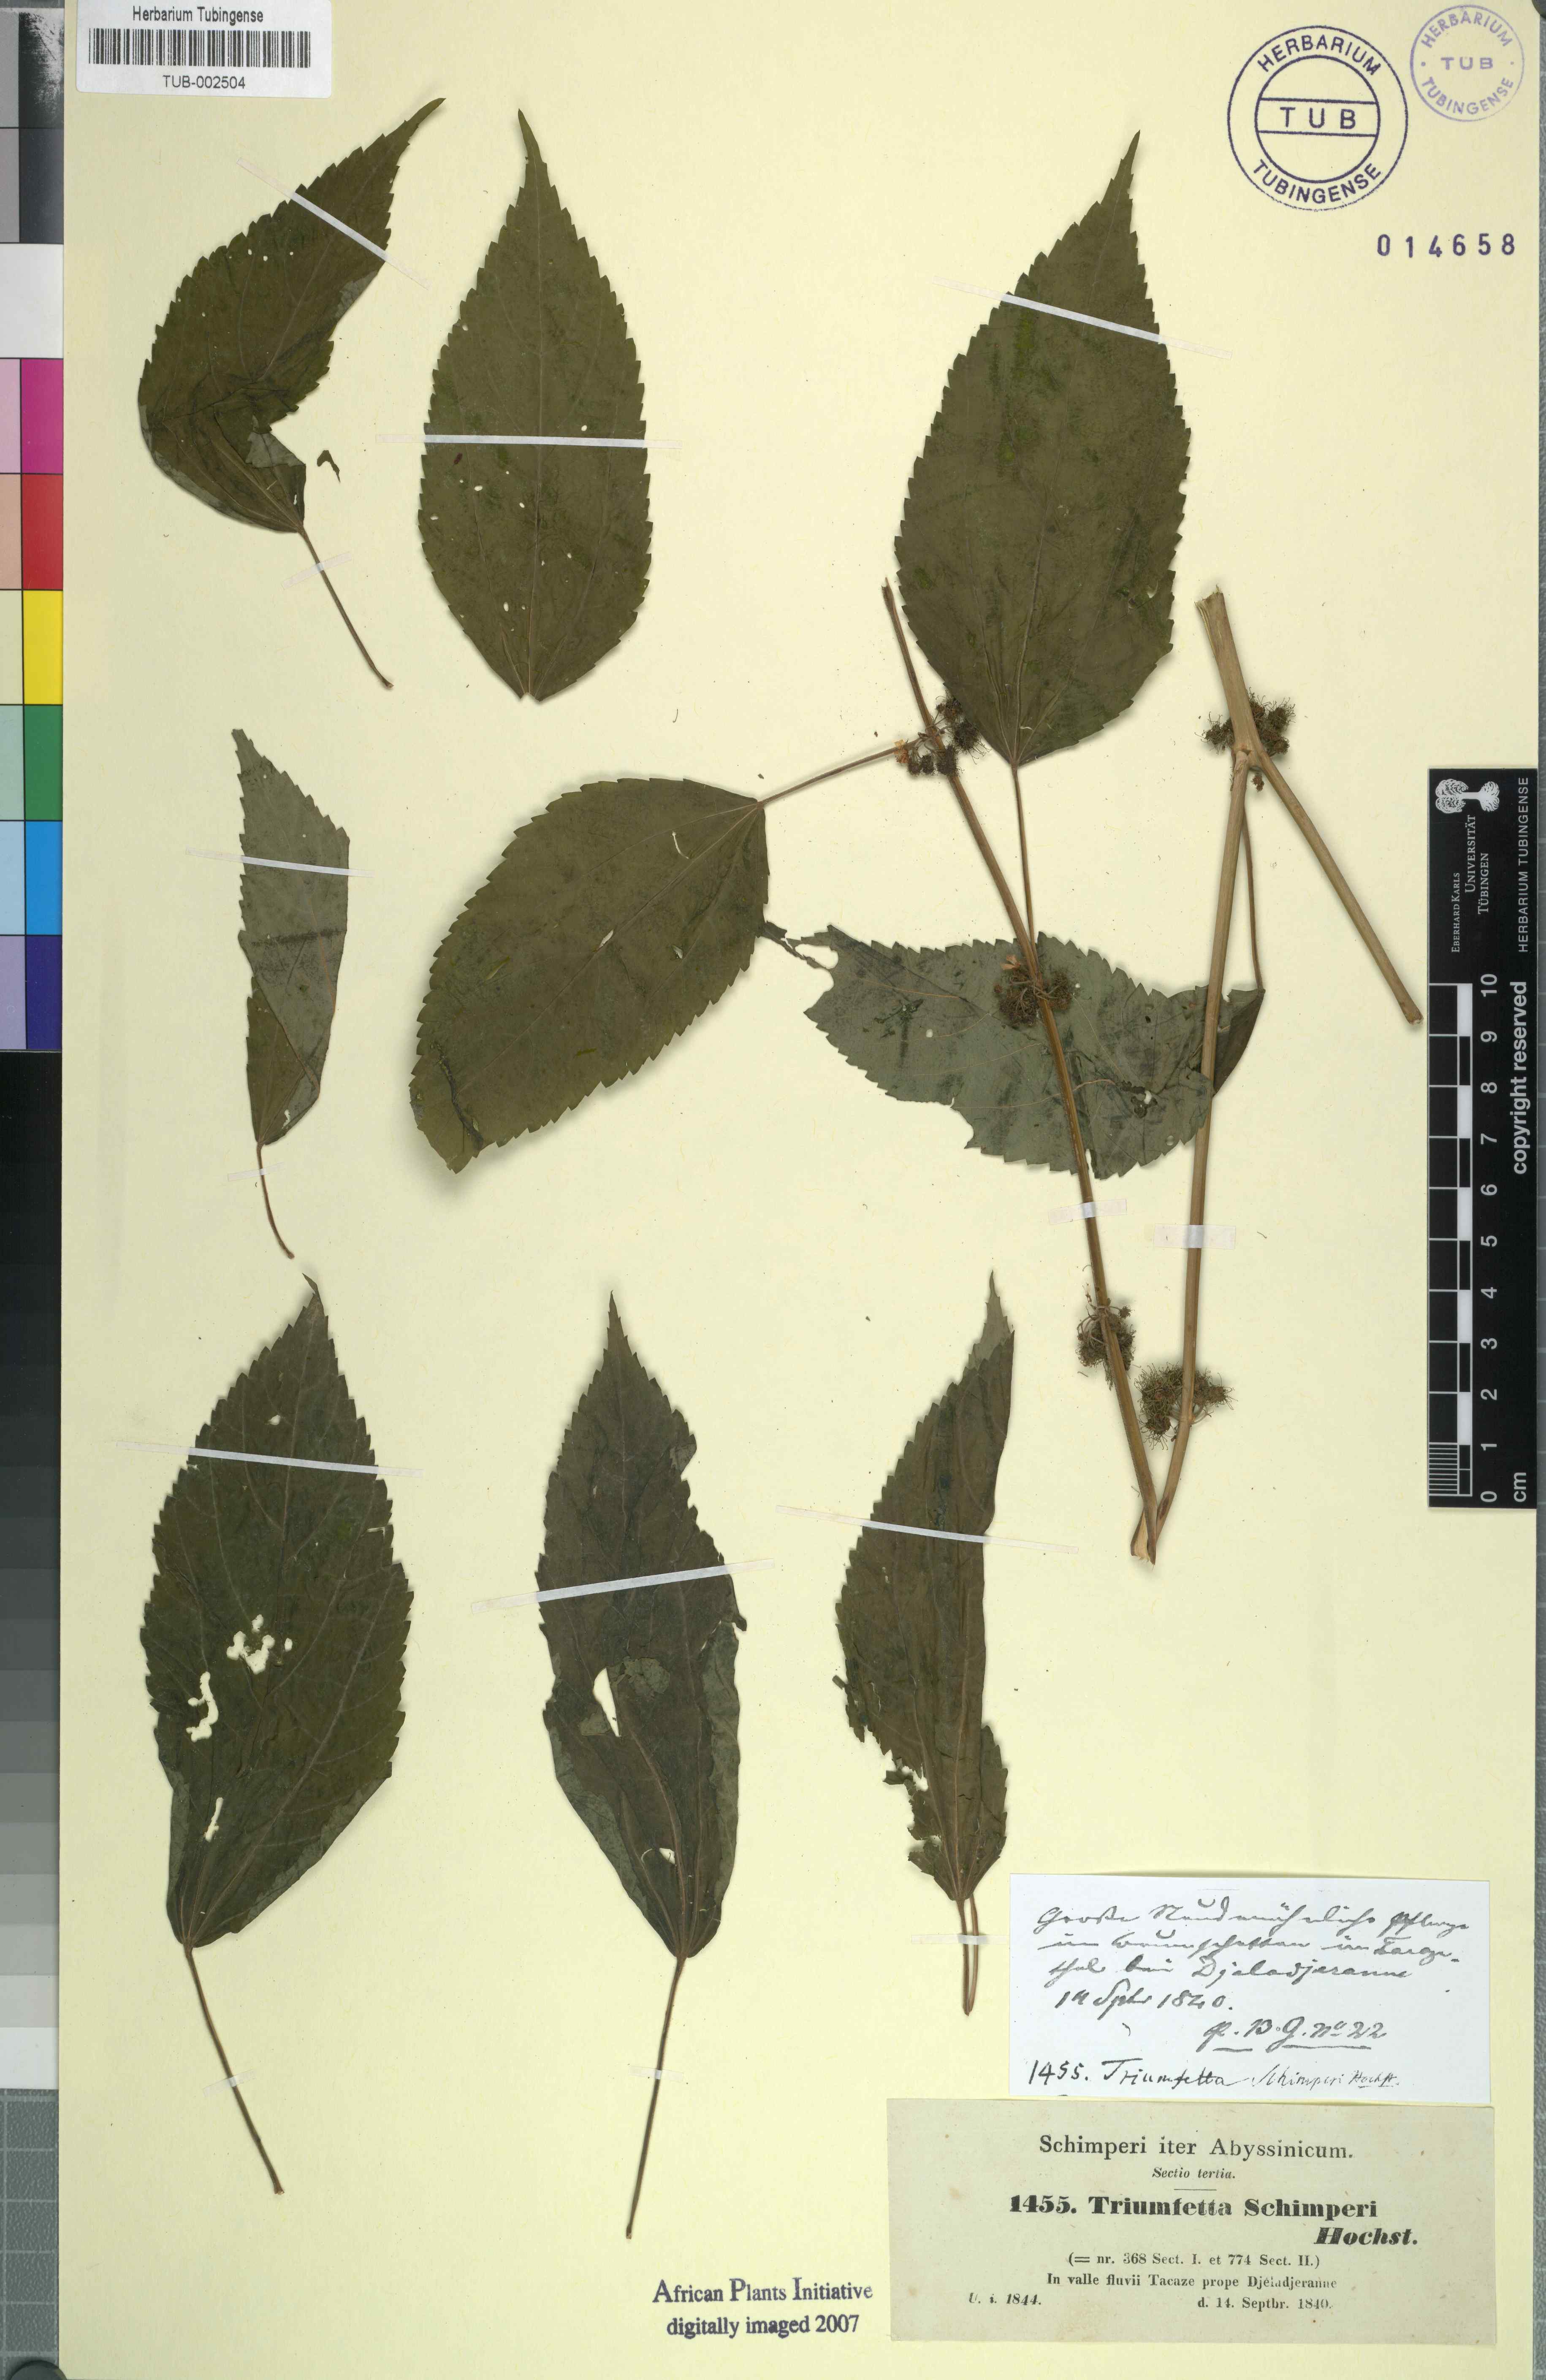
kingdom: Plantae
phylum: Tracheophyta
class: Magnoliopsida
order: Malvales
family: Malvaceae
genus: Triumfetta
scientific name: Triumfetta annua
